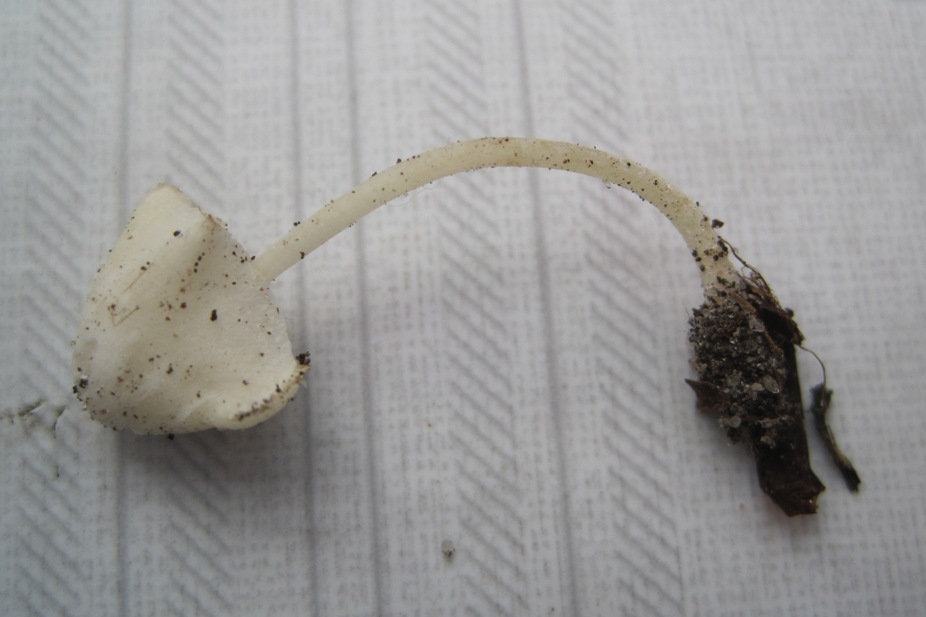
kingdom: Fungi
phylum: Basidiomycota
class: Agaricomycetes
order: Agaricales
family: Mycenaceae
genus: Hemimycena
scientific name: Hemimycena cucullata
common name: tætbladet huesvamp
